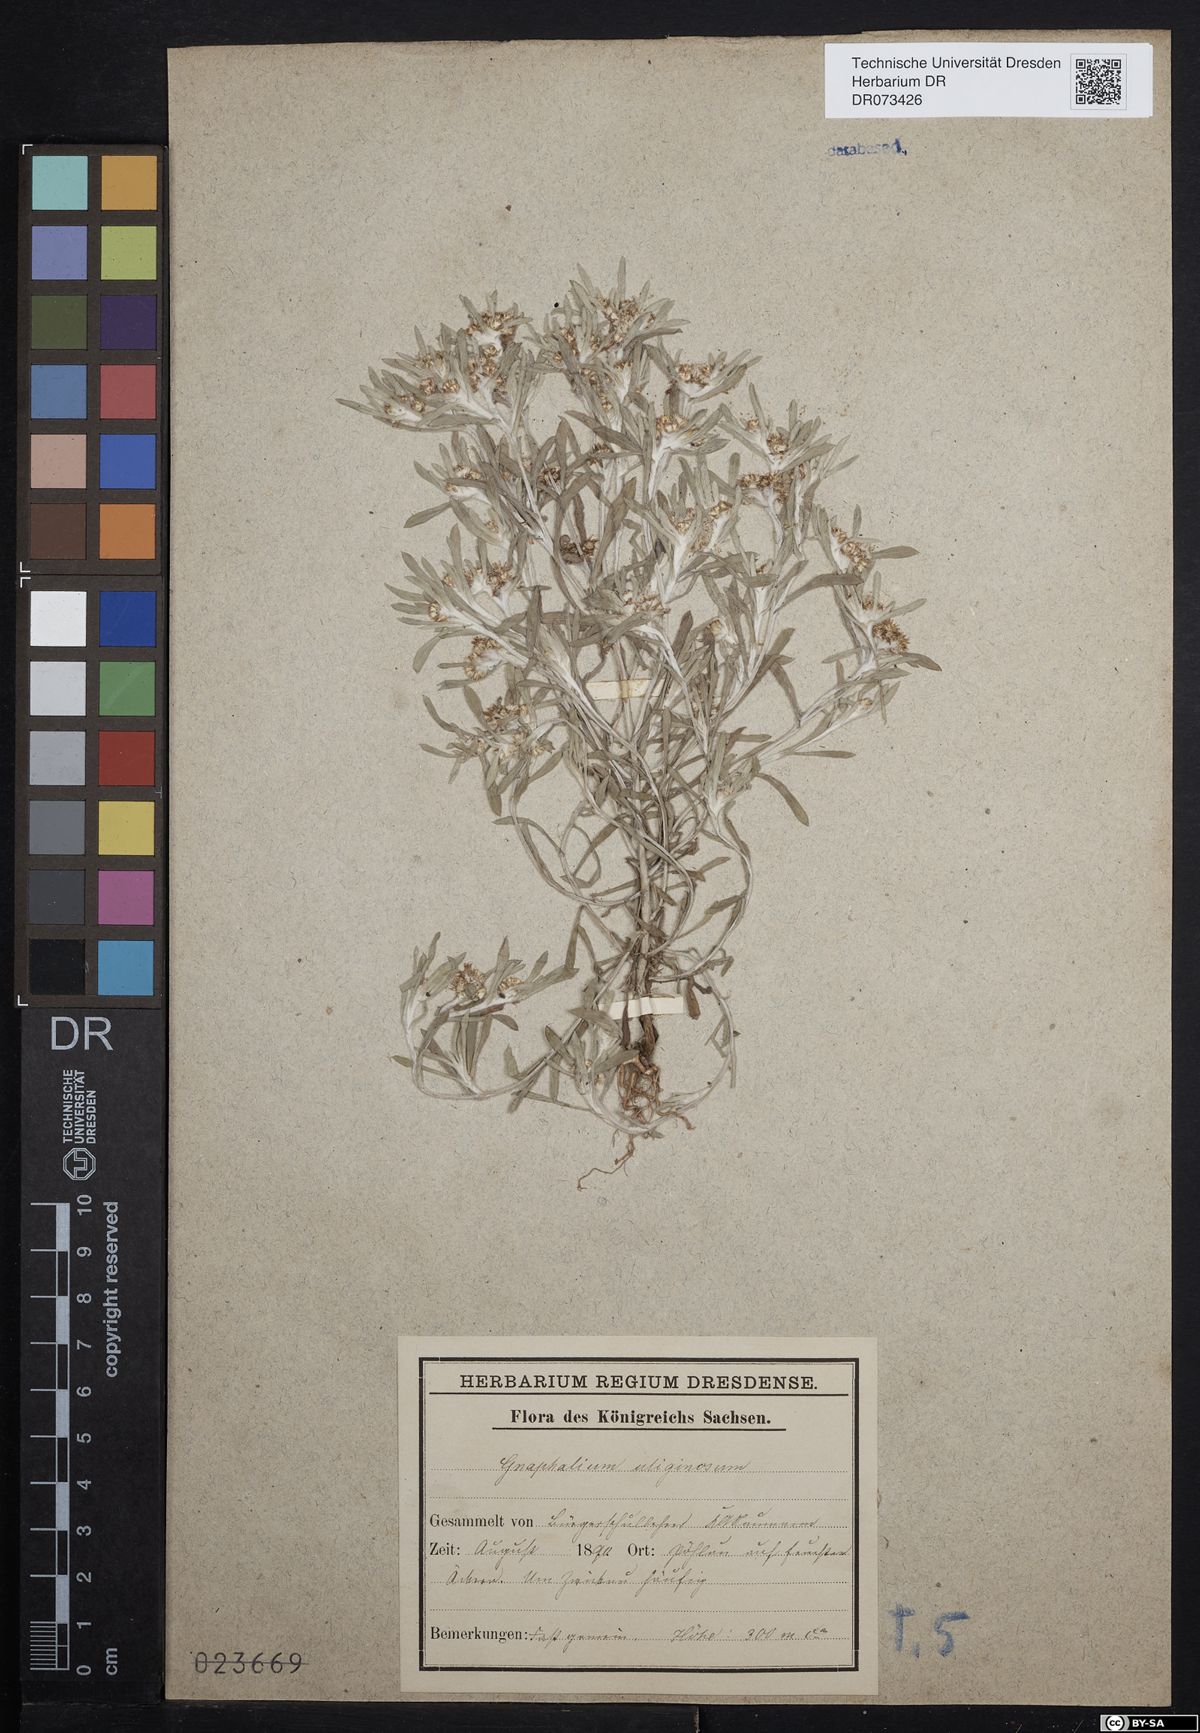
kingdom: Plantae
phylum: Tracheophyta
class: Magnoliopsida
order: Asterales
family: Asteraceae
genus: Gnaphalium
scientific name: Gnaphalium uliginosum
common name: Marsh cudweed
